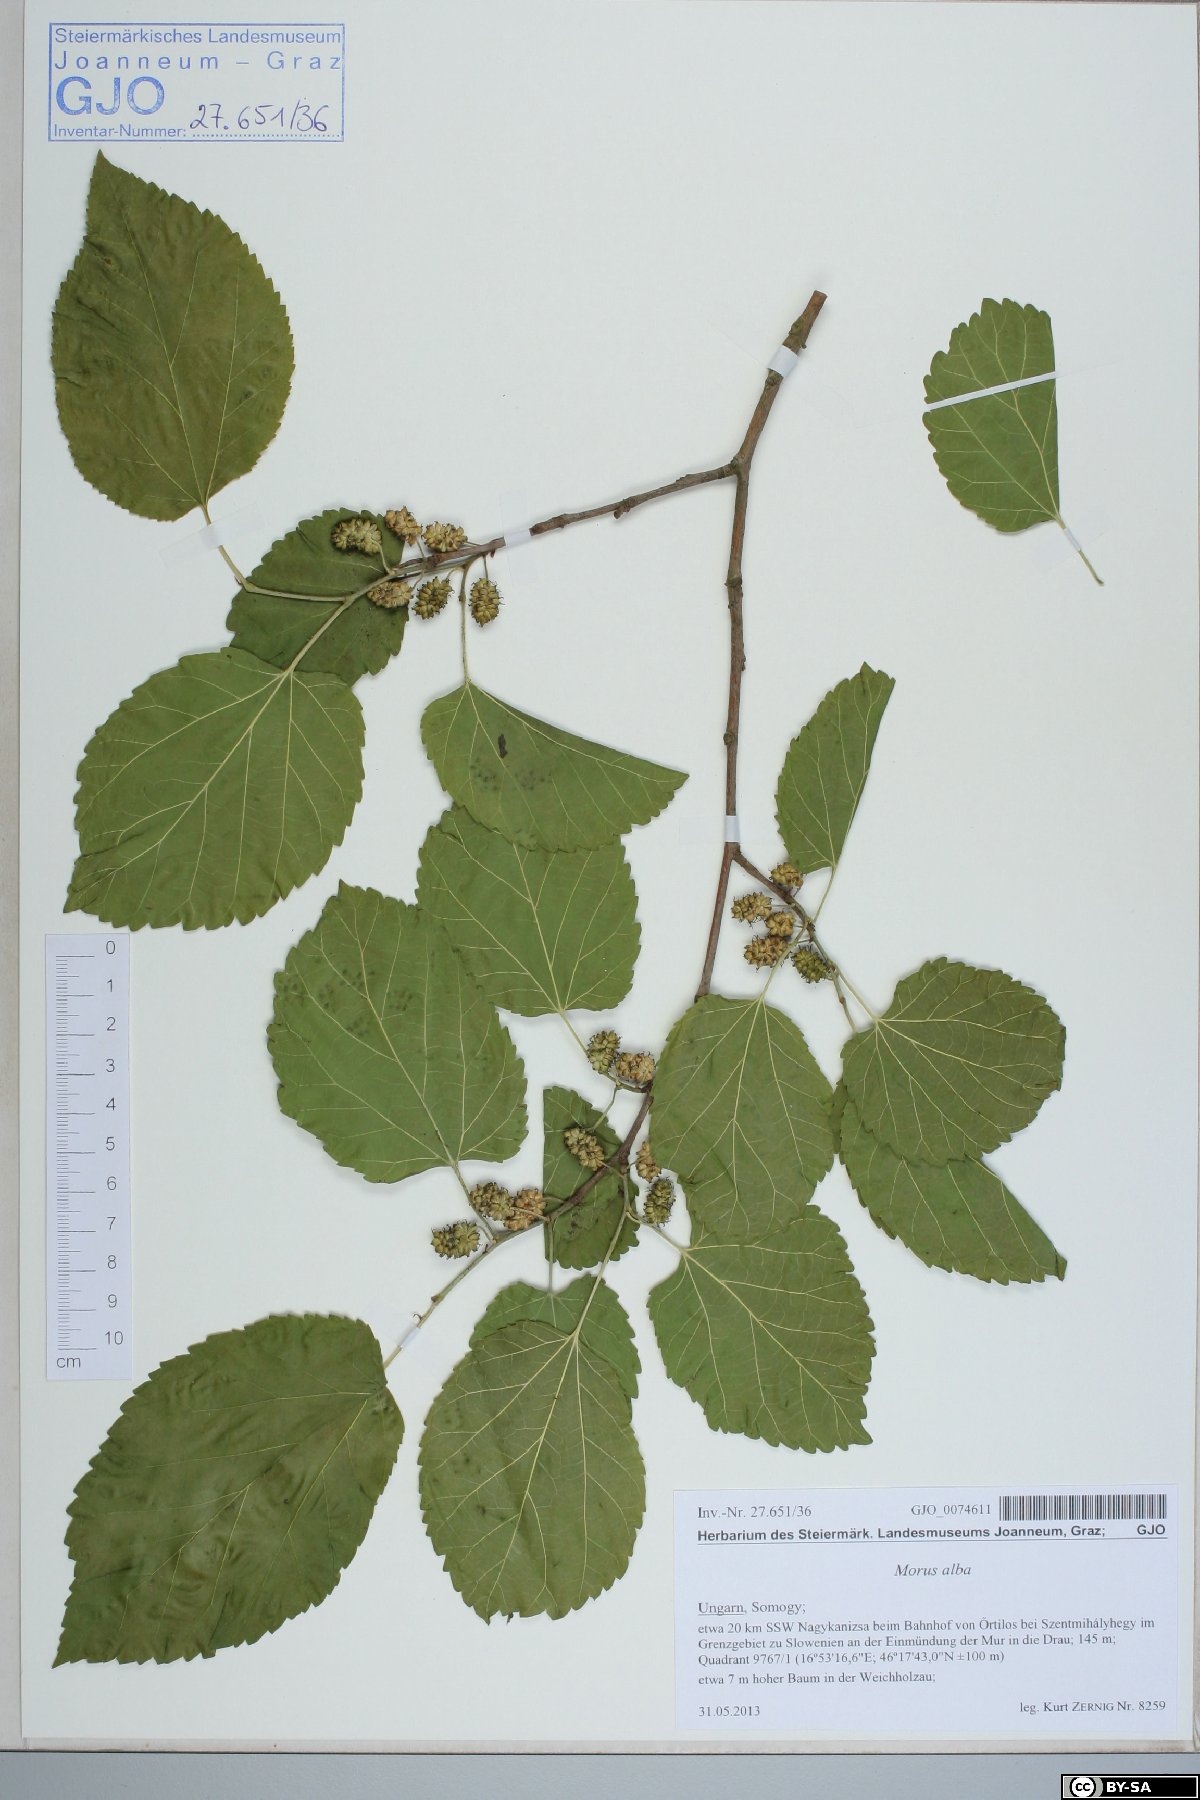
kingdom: Plantae
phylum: Tracheophyta
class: Magnoliopsida
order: Rosales
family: Moraceae
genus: Morus
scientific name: Morus alba
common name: White mulberry
